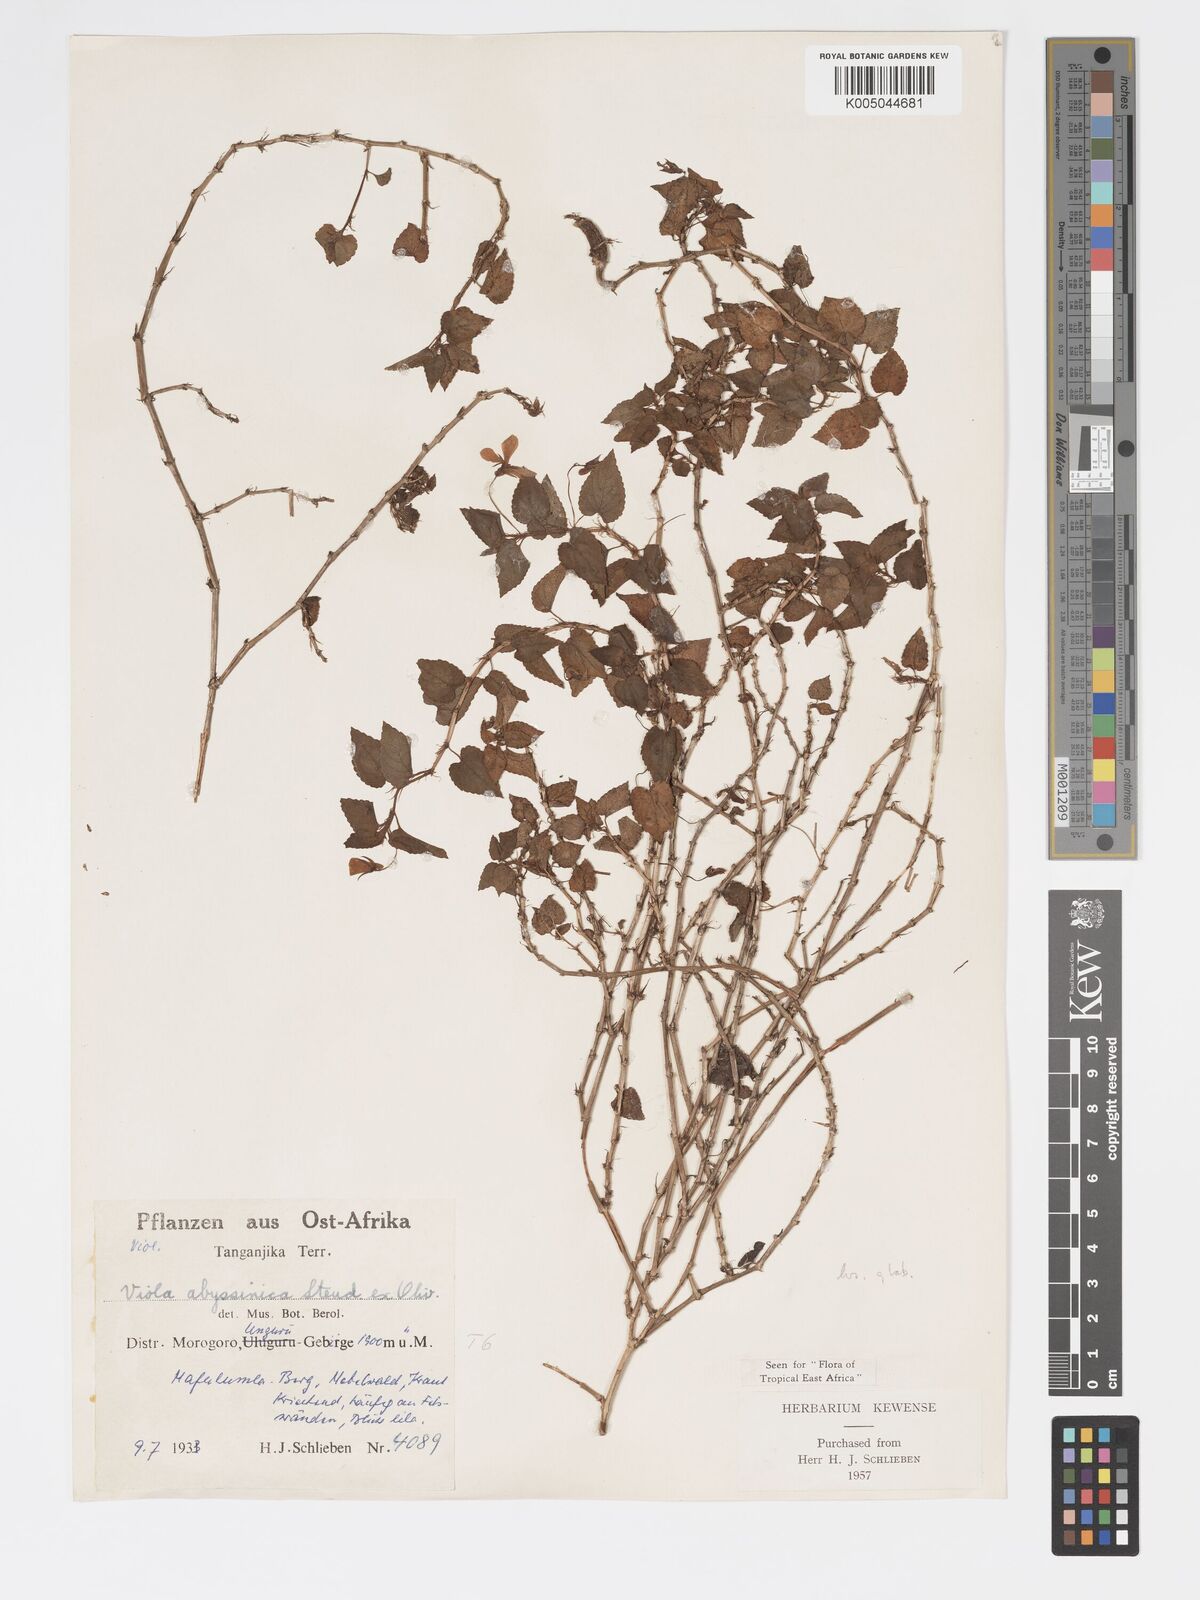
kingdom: Plantae
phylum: Tracheophyta
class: Magnoliopsida
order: Malpighiales
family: Violaceae
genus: Viola
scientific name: Viola abyssinica
